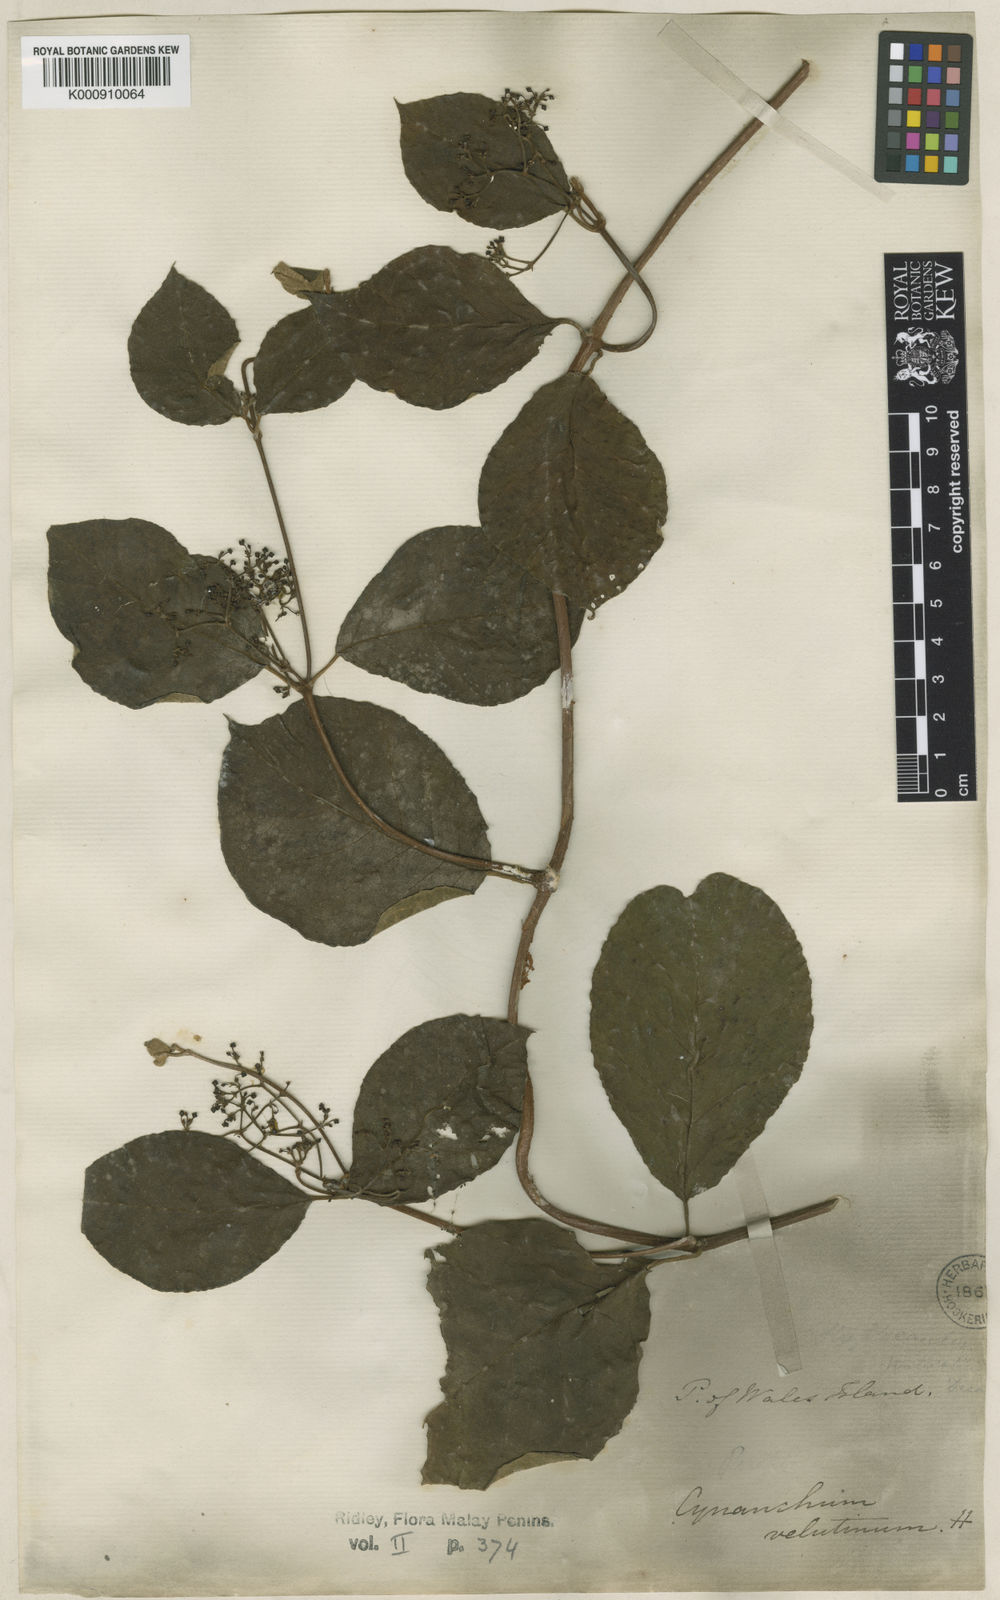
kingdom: Plantae
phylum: Tracheophyta
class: Magnoliopsida
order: Gentianales
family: Apocynaceae
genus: Streptocaulon
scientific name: Streptocaulon wallichii
